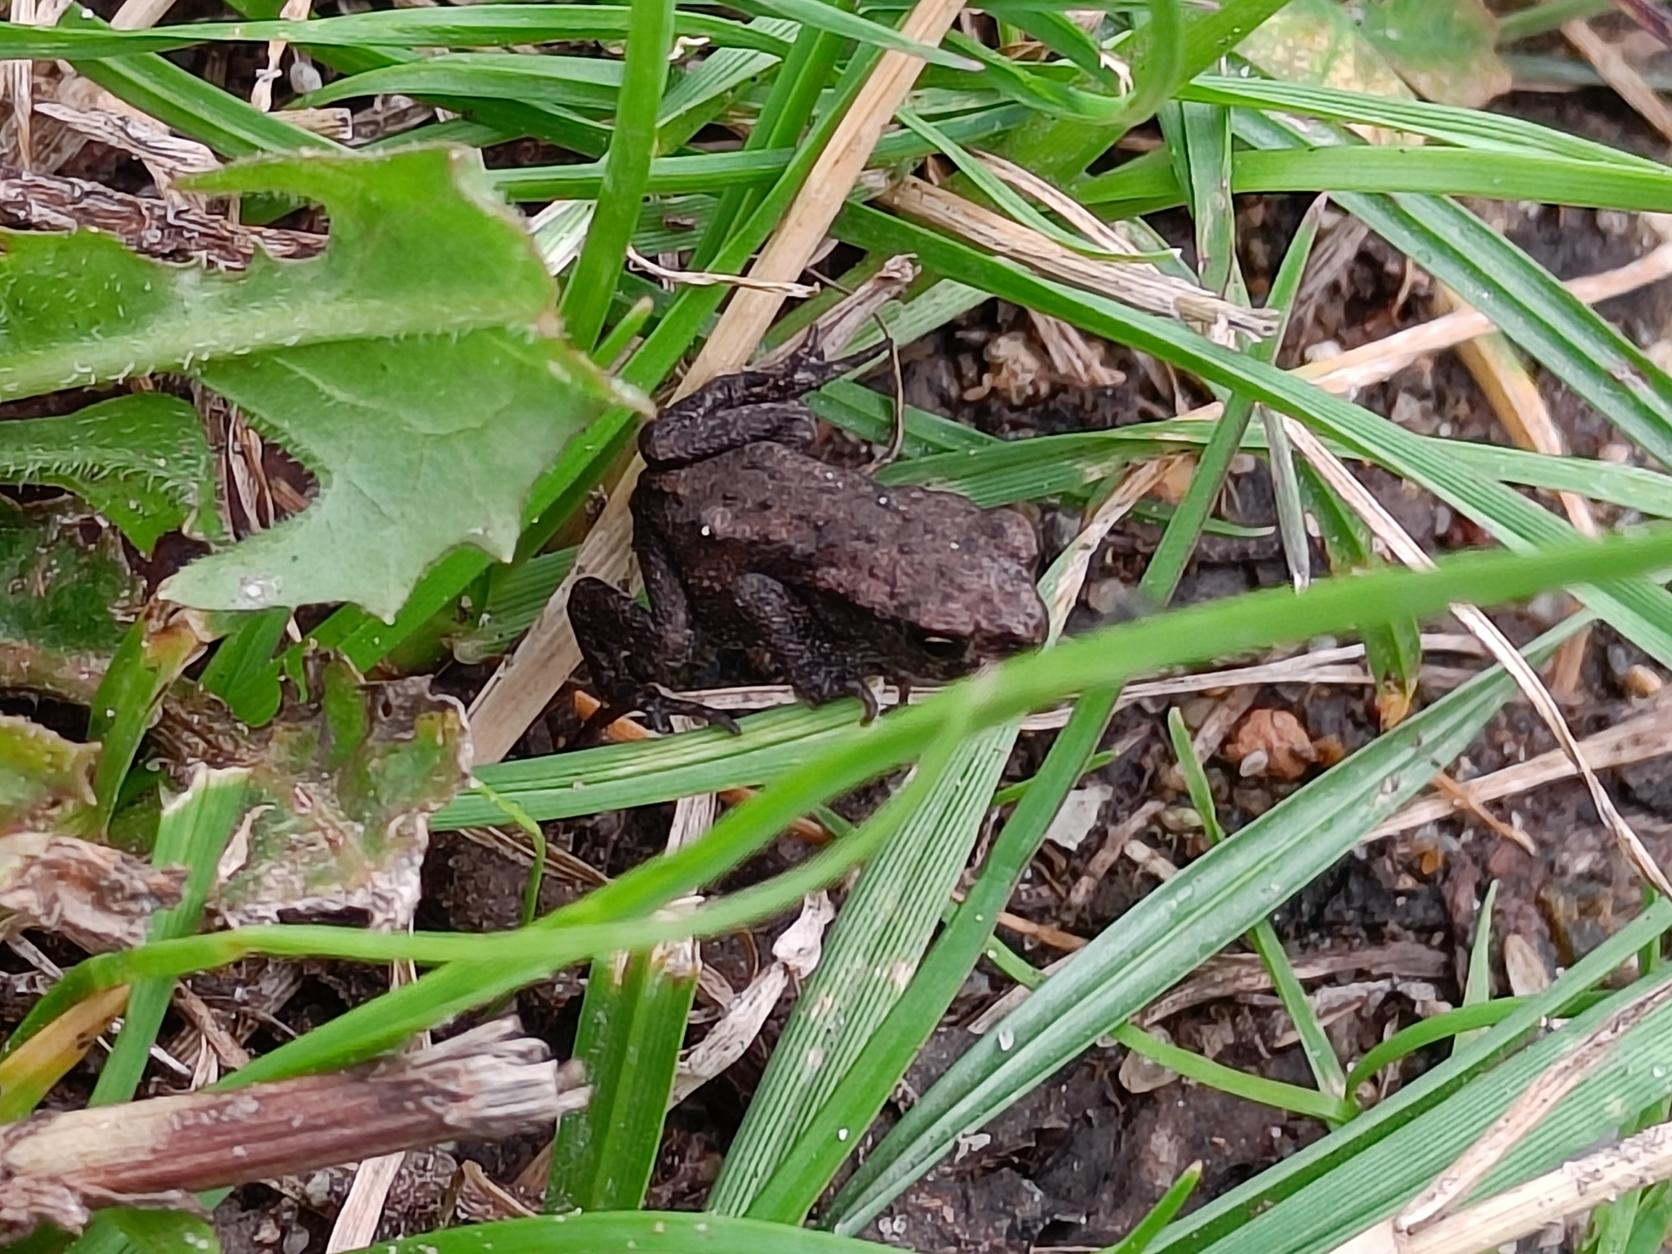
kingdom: Animalia
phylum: Chordata
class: Amphibia
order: Anura
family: Bufonidae
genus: Bufo
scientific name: Bufo bufo
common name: Skrubtudse
